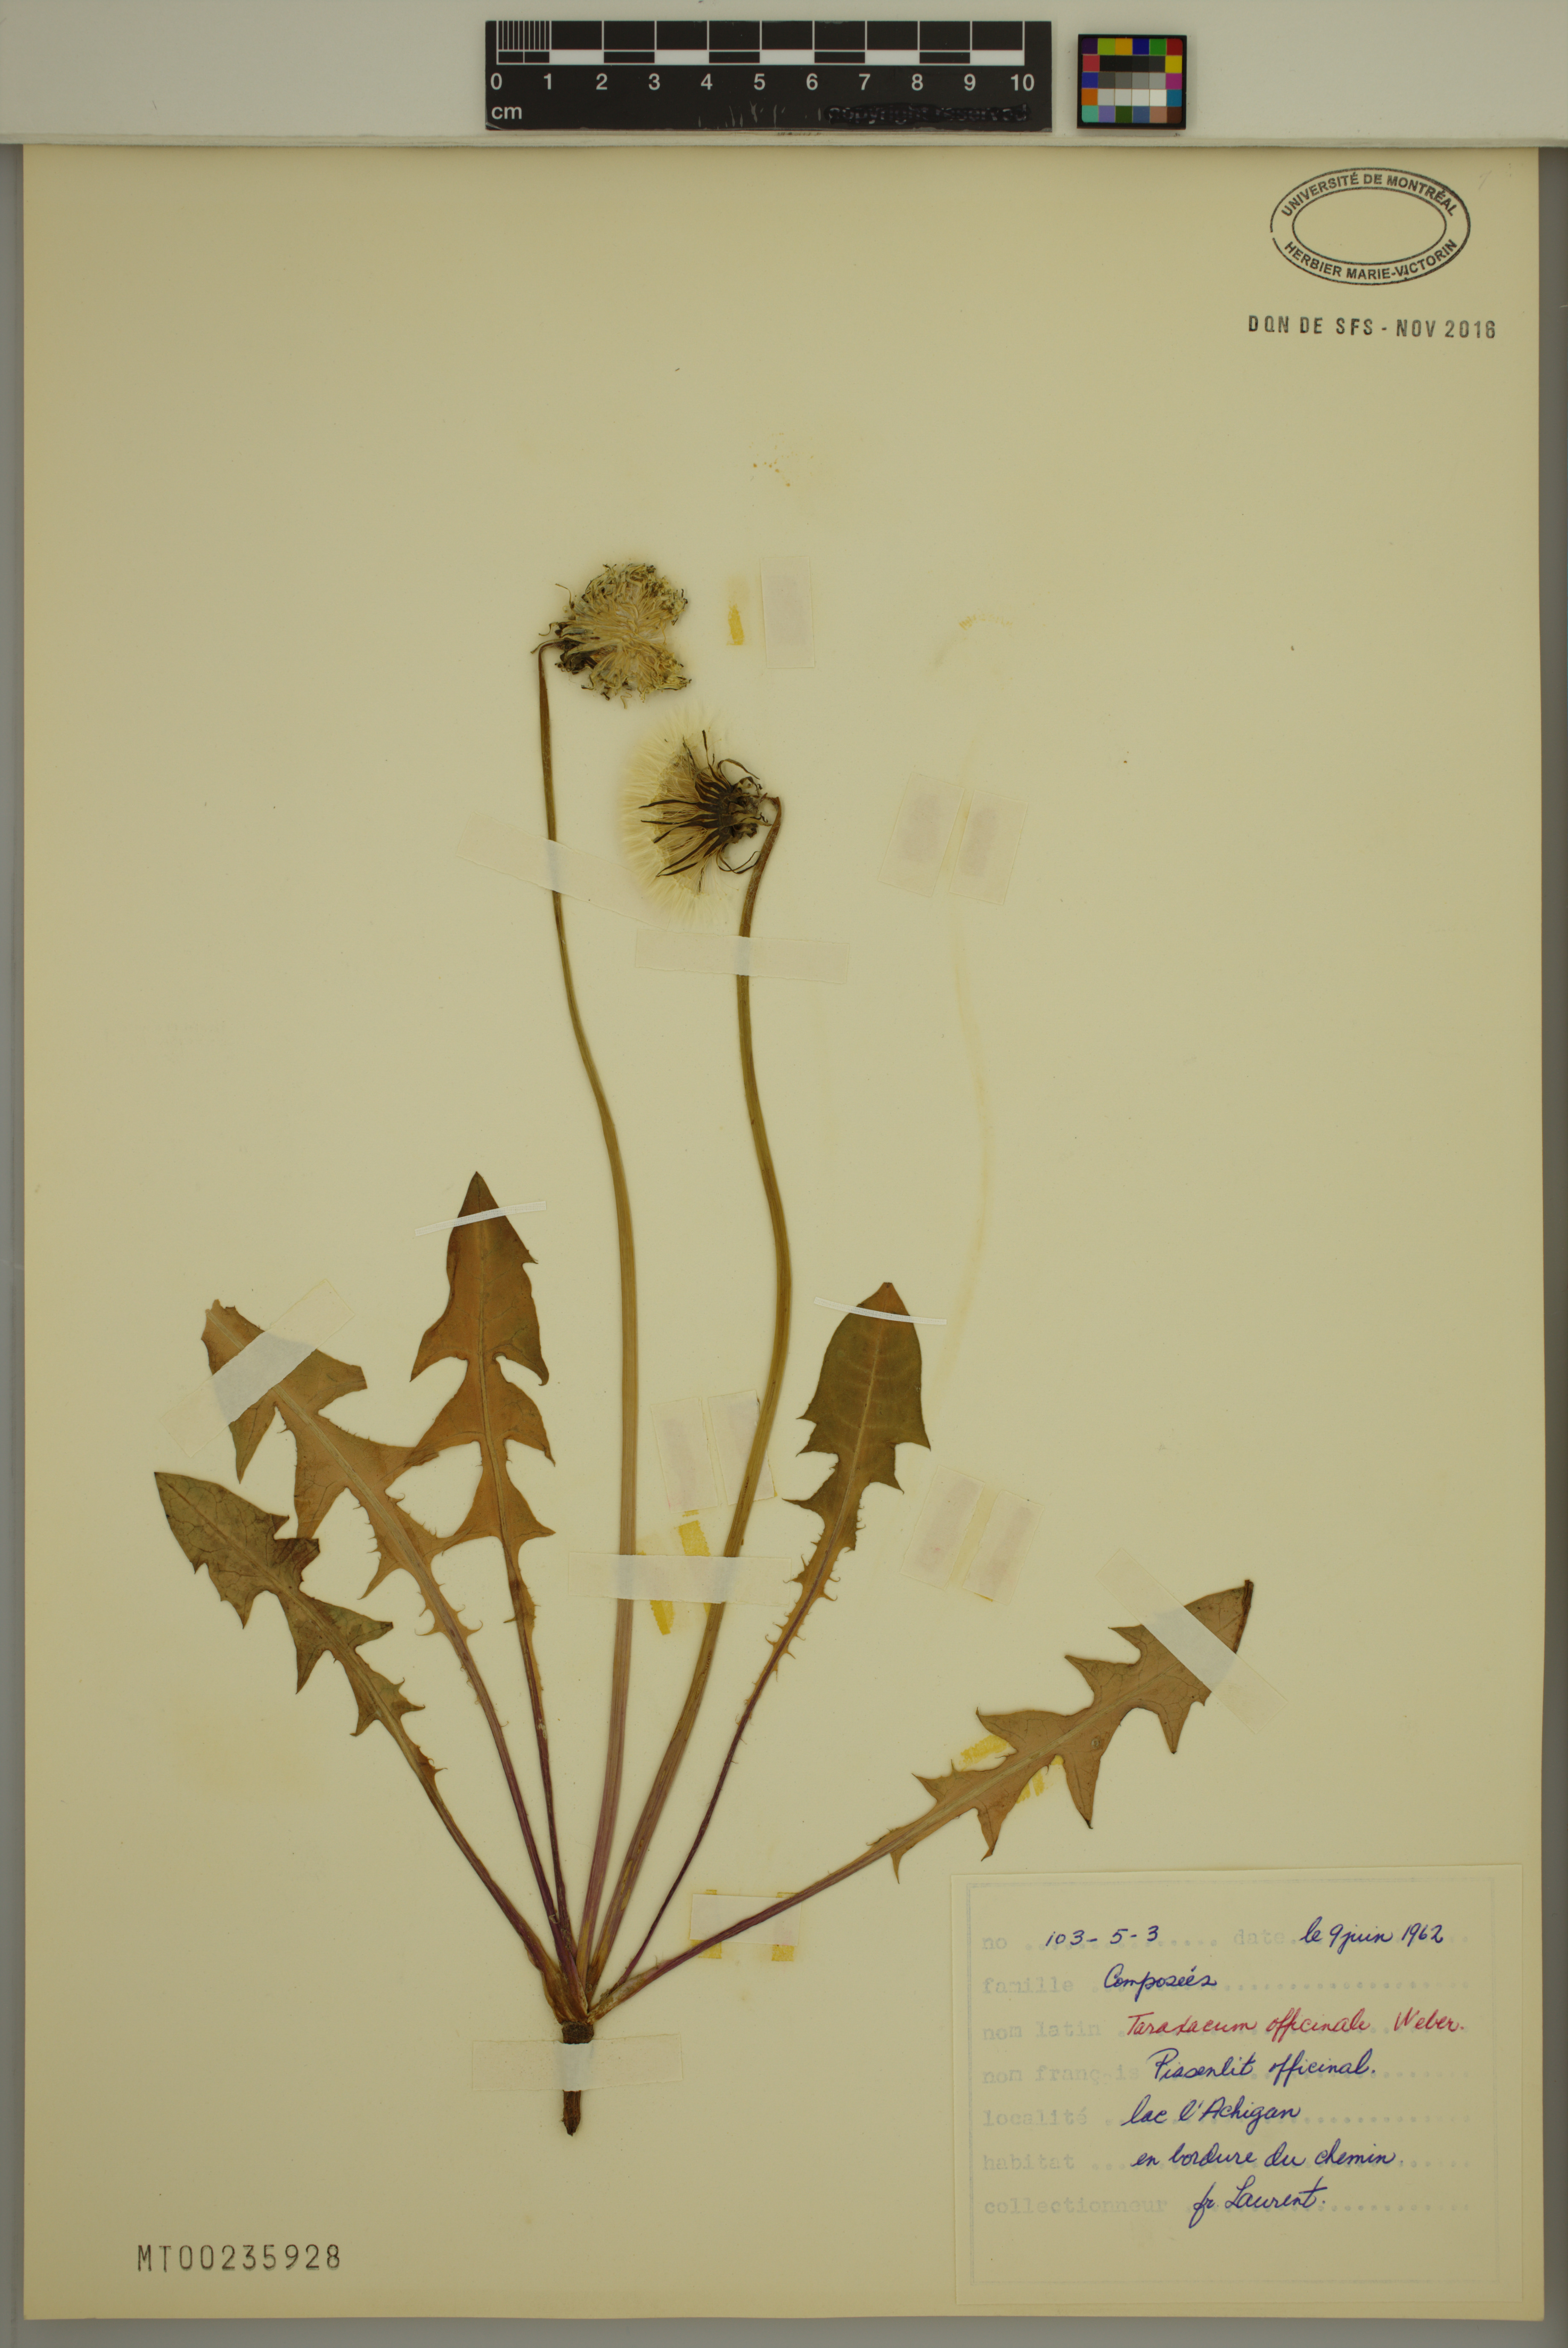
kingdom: Plantae
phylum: Tracheophyta
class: Magnoliopsida
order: Asterales
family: Asteraceae
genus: Taraxacum
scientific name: Taraxacum officinale
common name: Common dandelion
